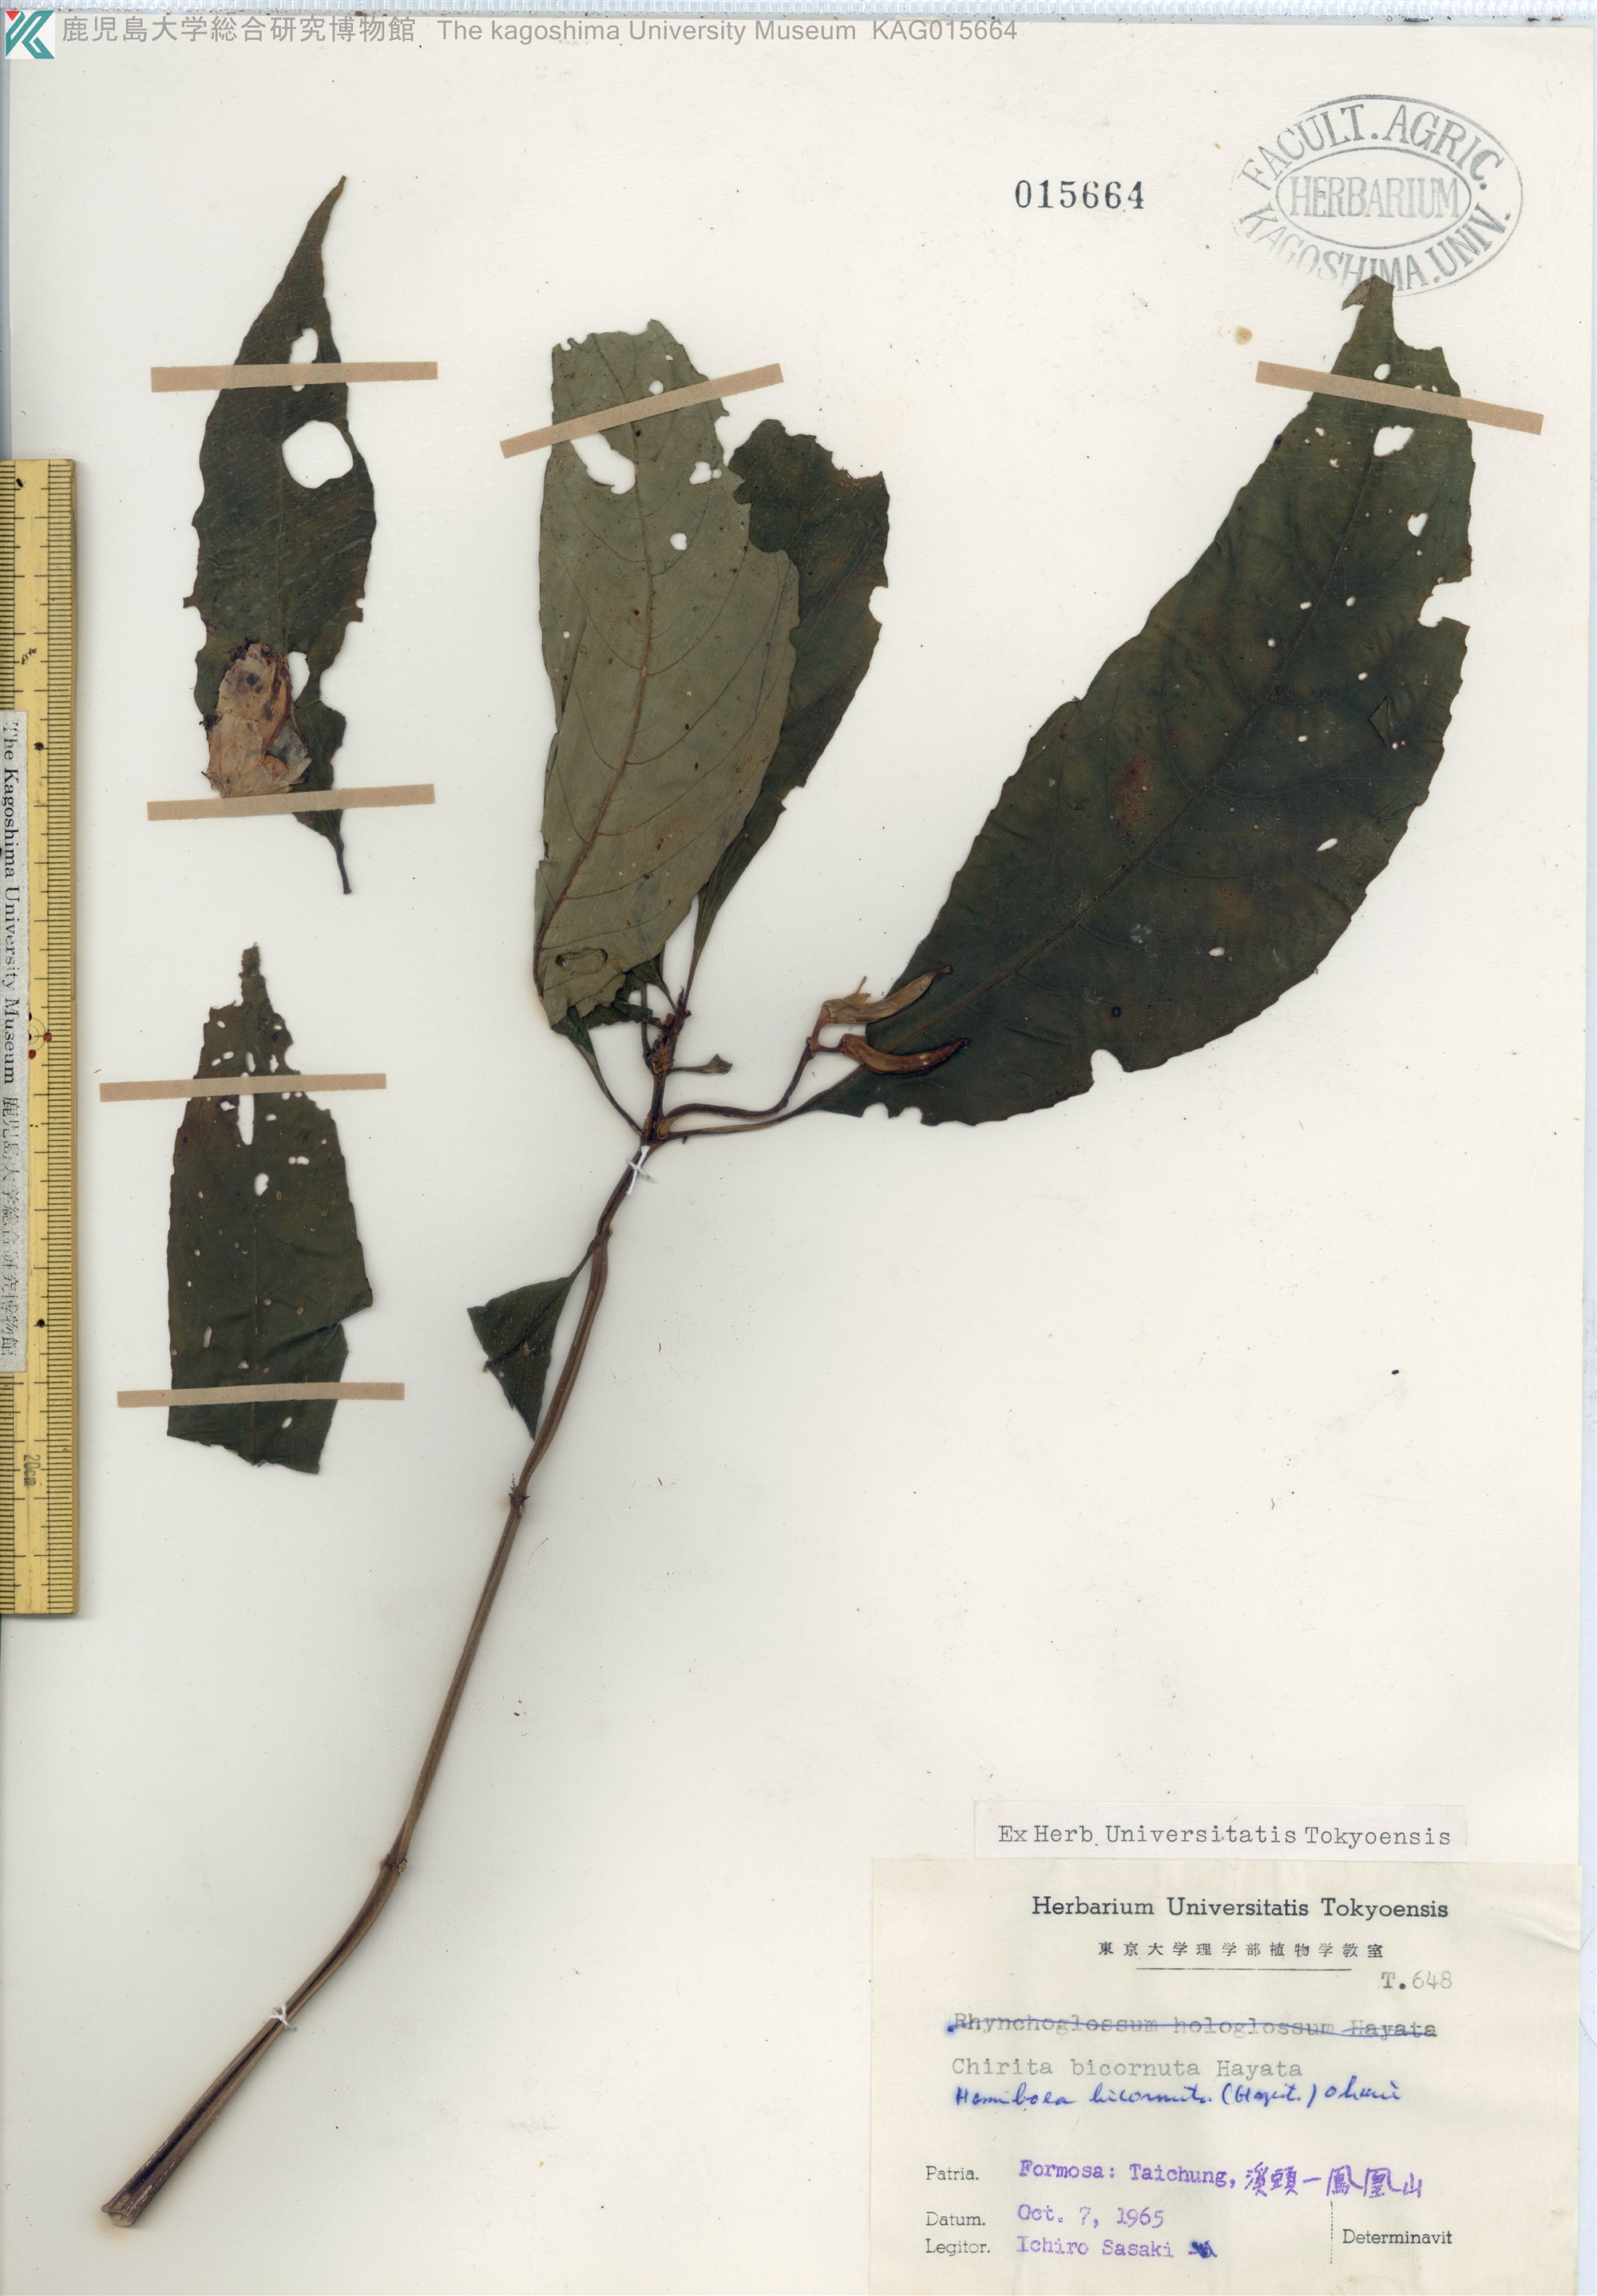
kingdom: Plantae
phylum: Tracheophyta
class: Magnoliopsida
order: Lamiales
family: Gesneriaceae
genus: Hemiboea
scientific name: Hemiboea bicornuta
